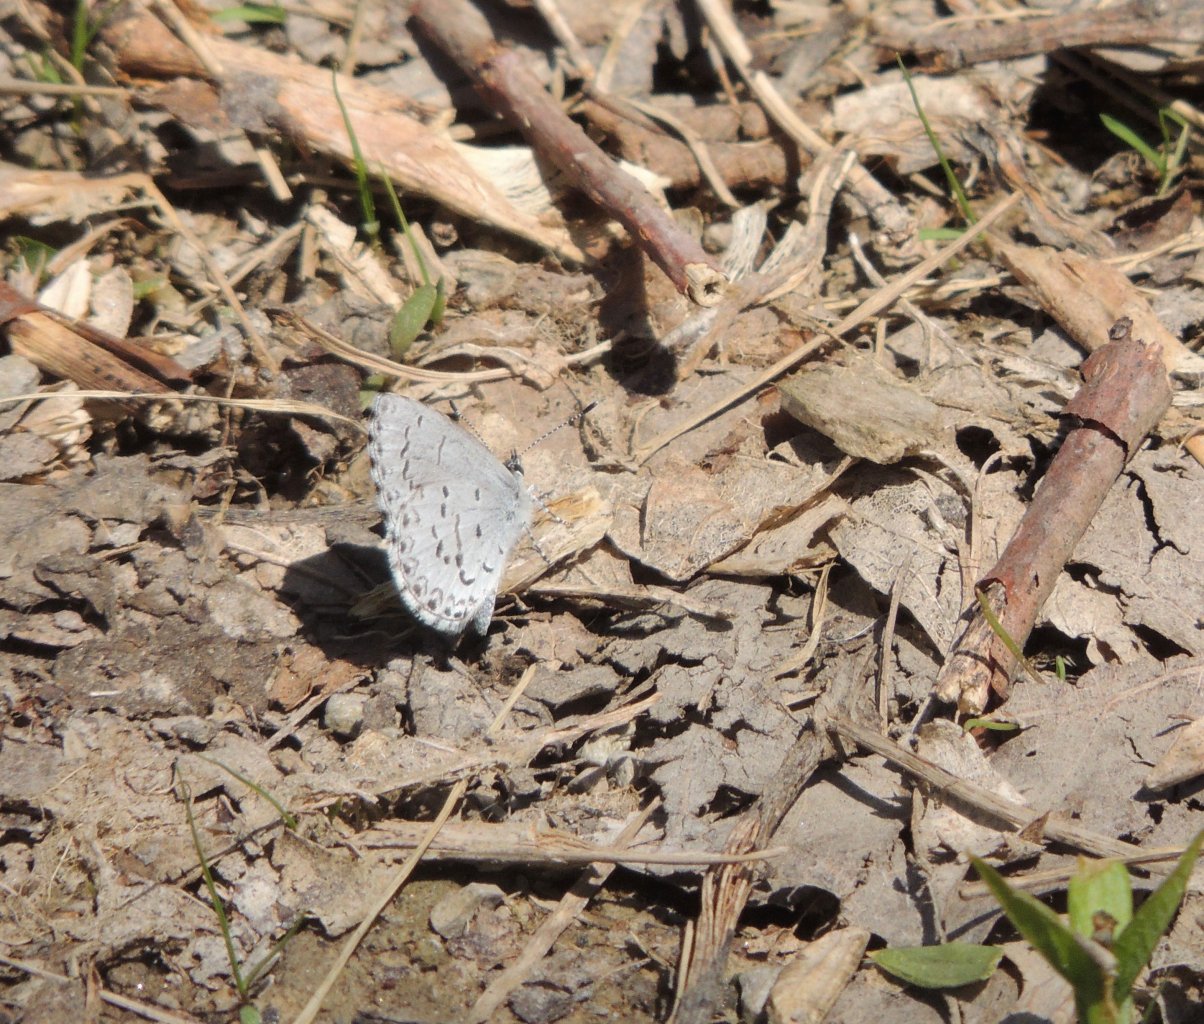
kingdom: Animalia
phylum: Arthropoda
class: Insecta
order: Lepidoptera
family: Lycaenidae
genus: Celastrina
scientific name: Celastrina lucia
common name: Northern Spring Azure
